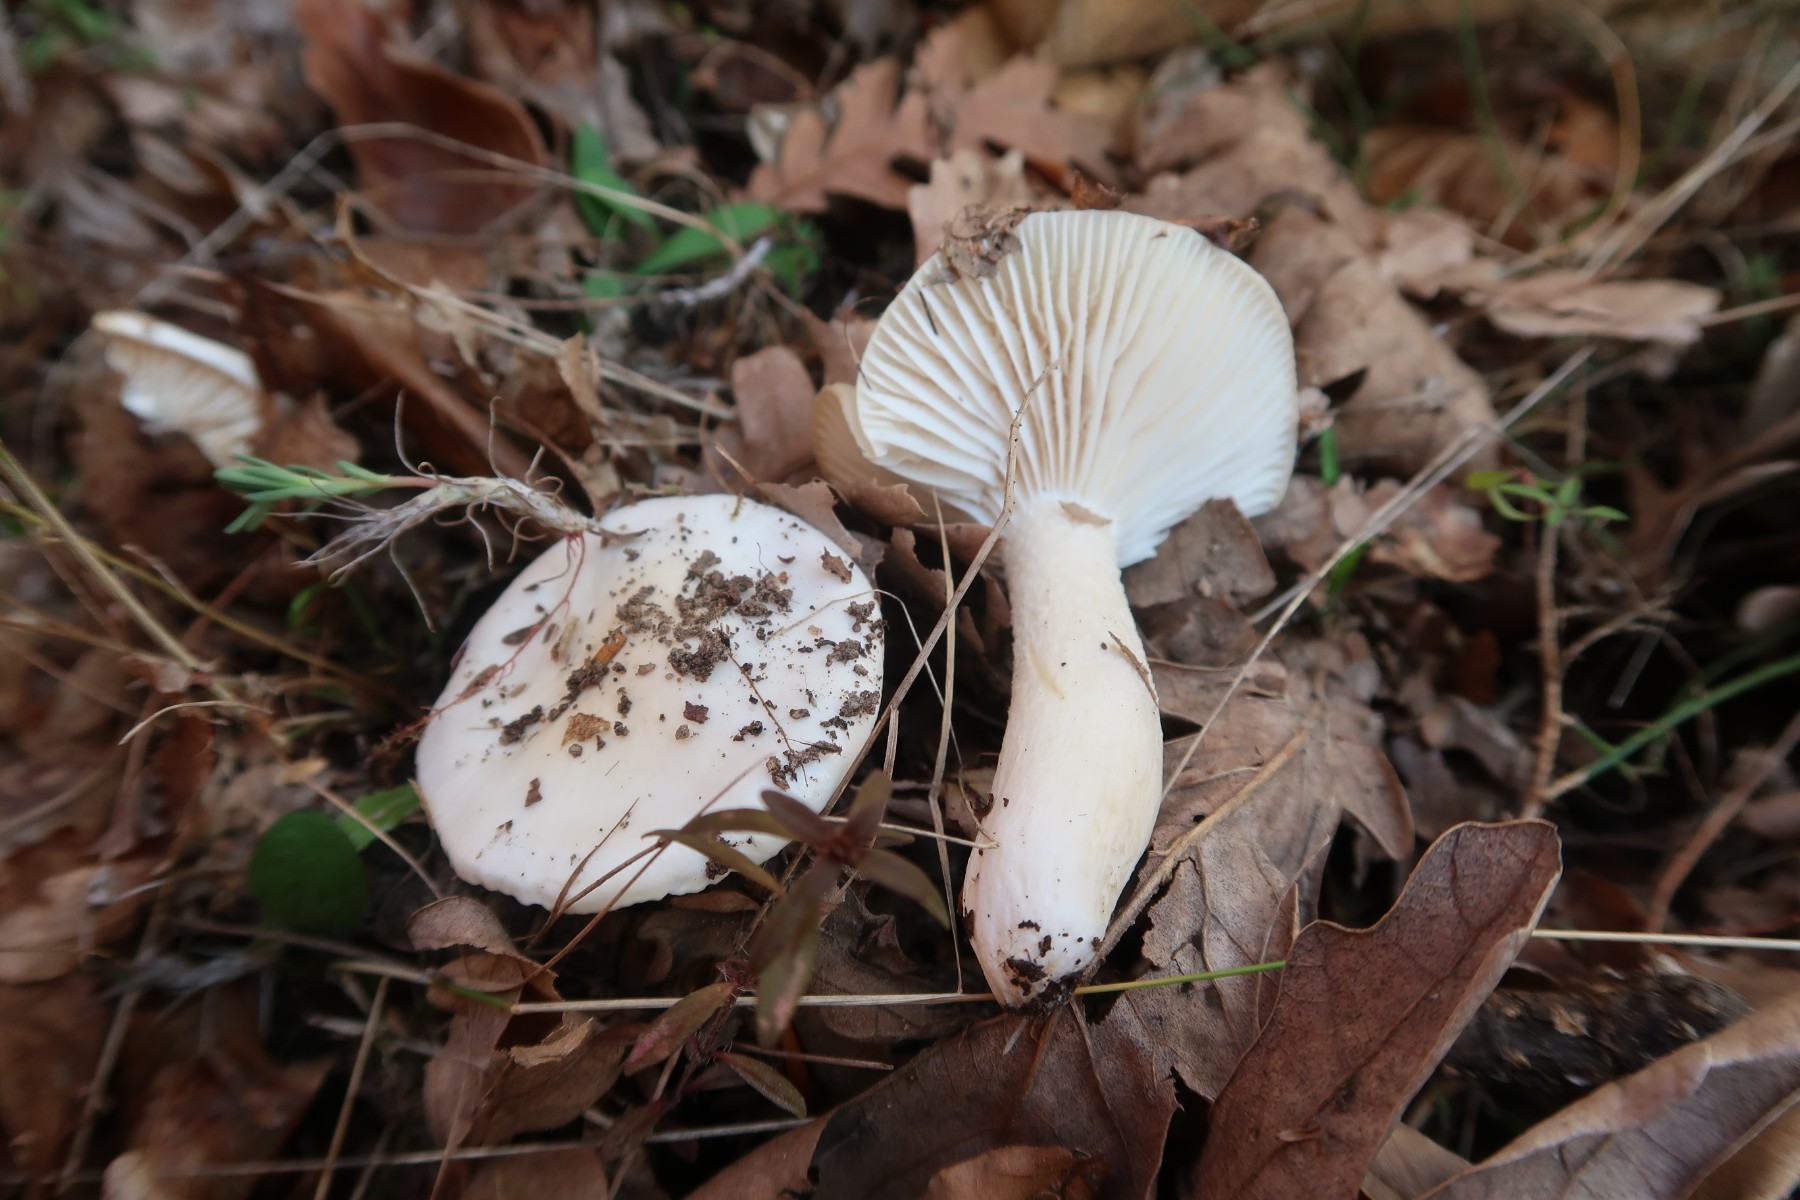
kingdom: Fungi
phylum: Basidiomycota
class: Agaricomycetes
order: Agaricales
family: Hygrophoraceae
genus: Hygrophorus
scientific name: Hygrophorus cossus
